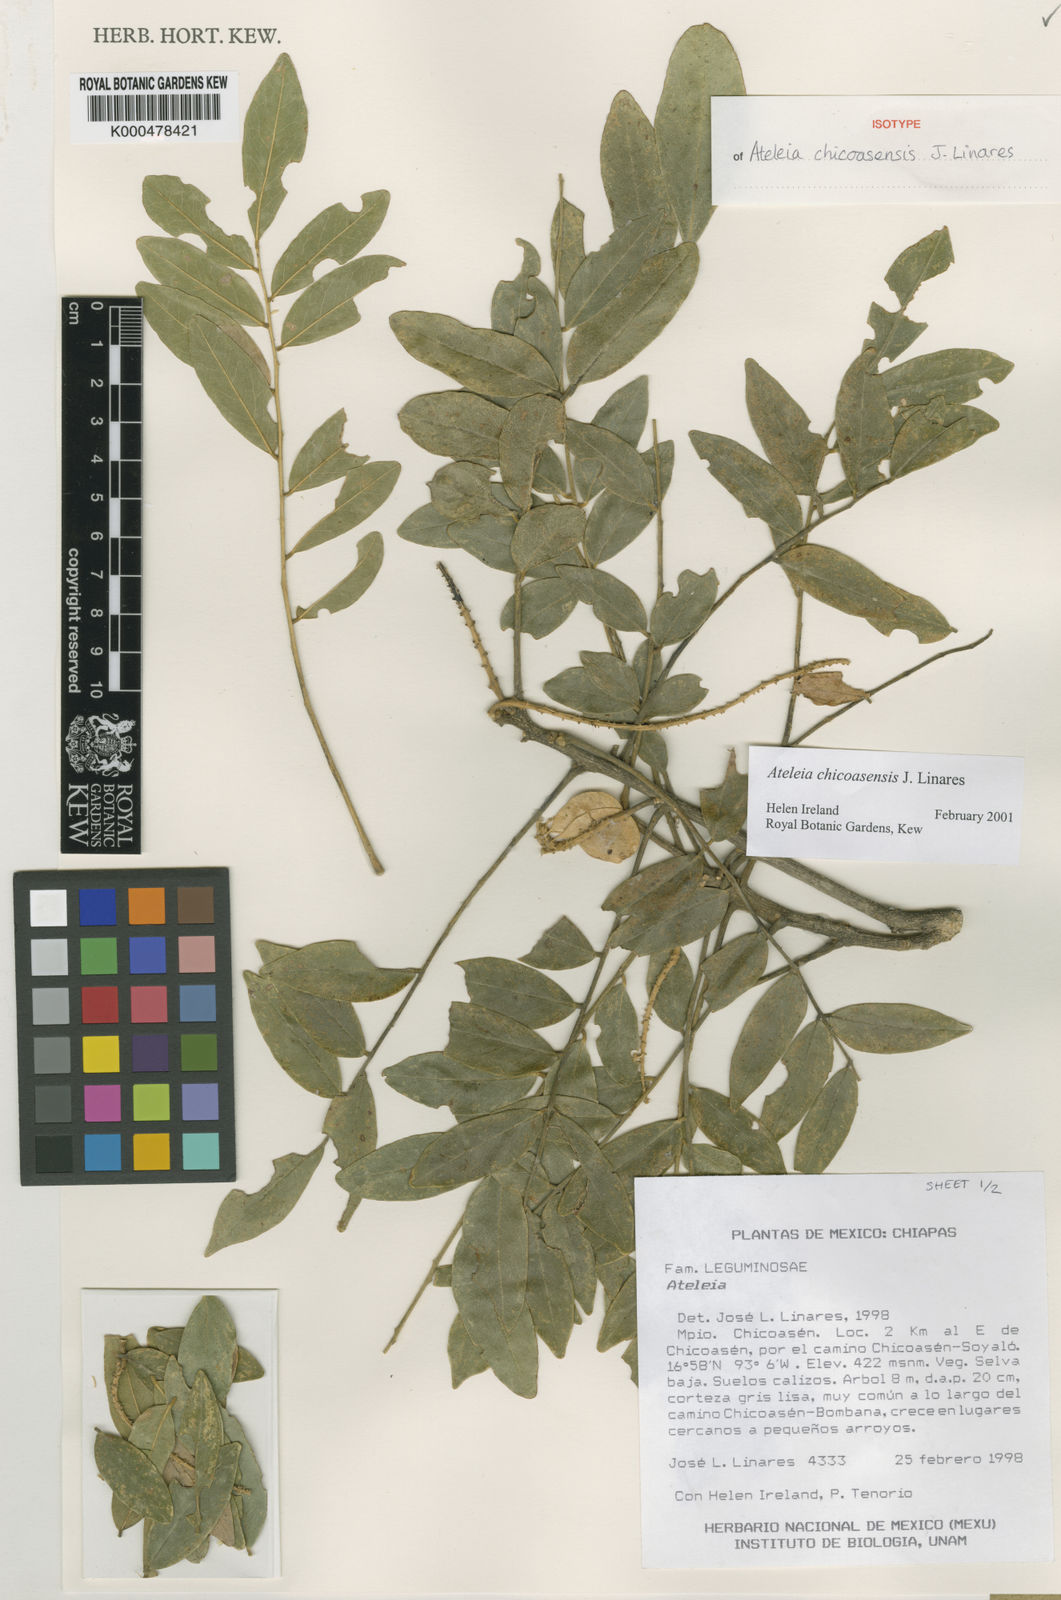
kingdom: Plantae
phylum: Tracheophyta
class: Magnoliopsida
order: Fabales
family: Fabaceae
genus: Ateleia
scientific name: Ateleia chicoasensis
